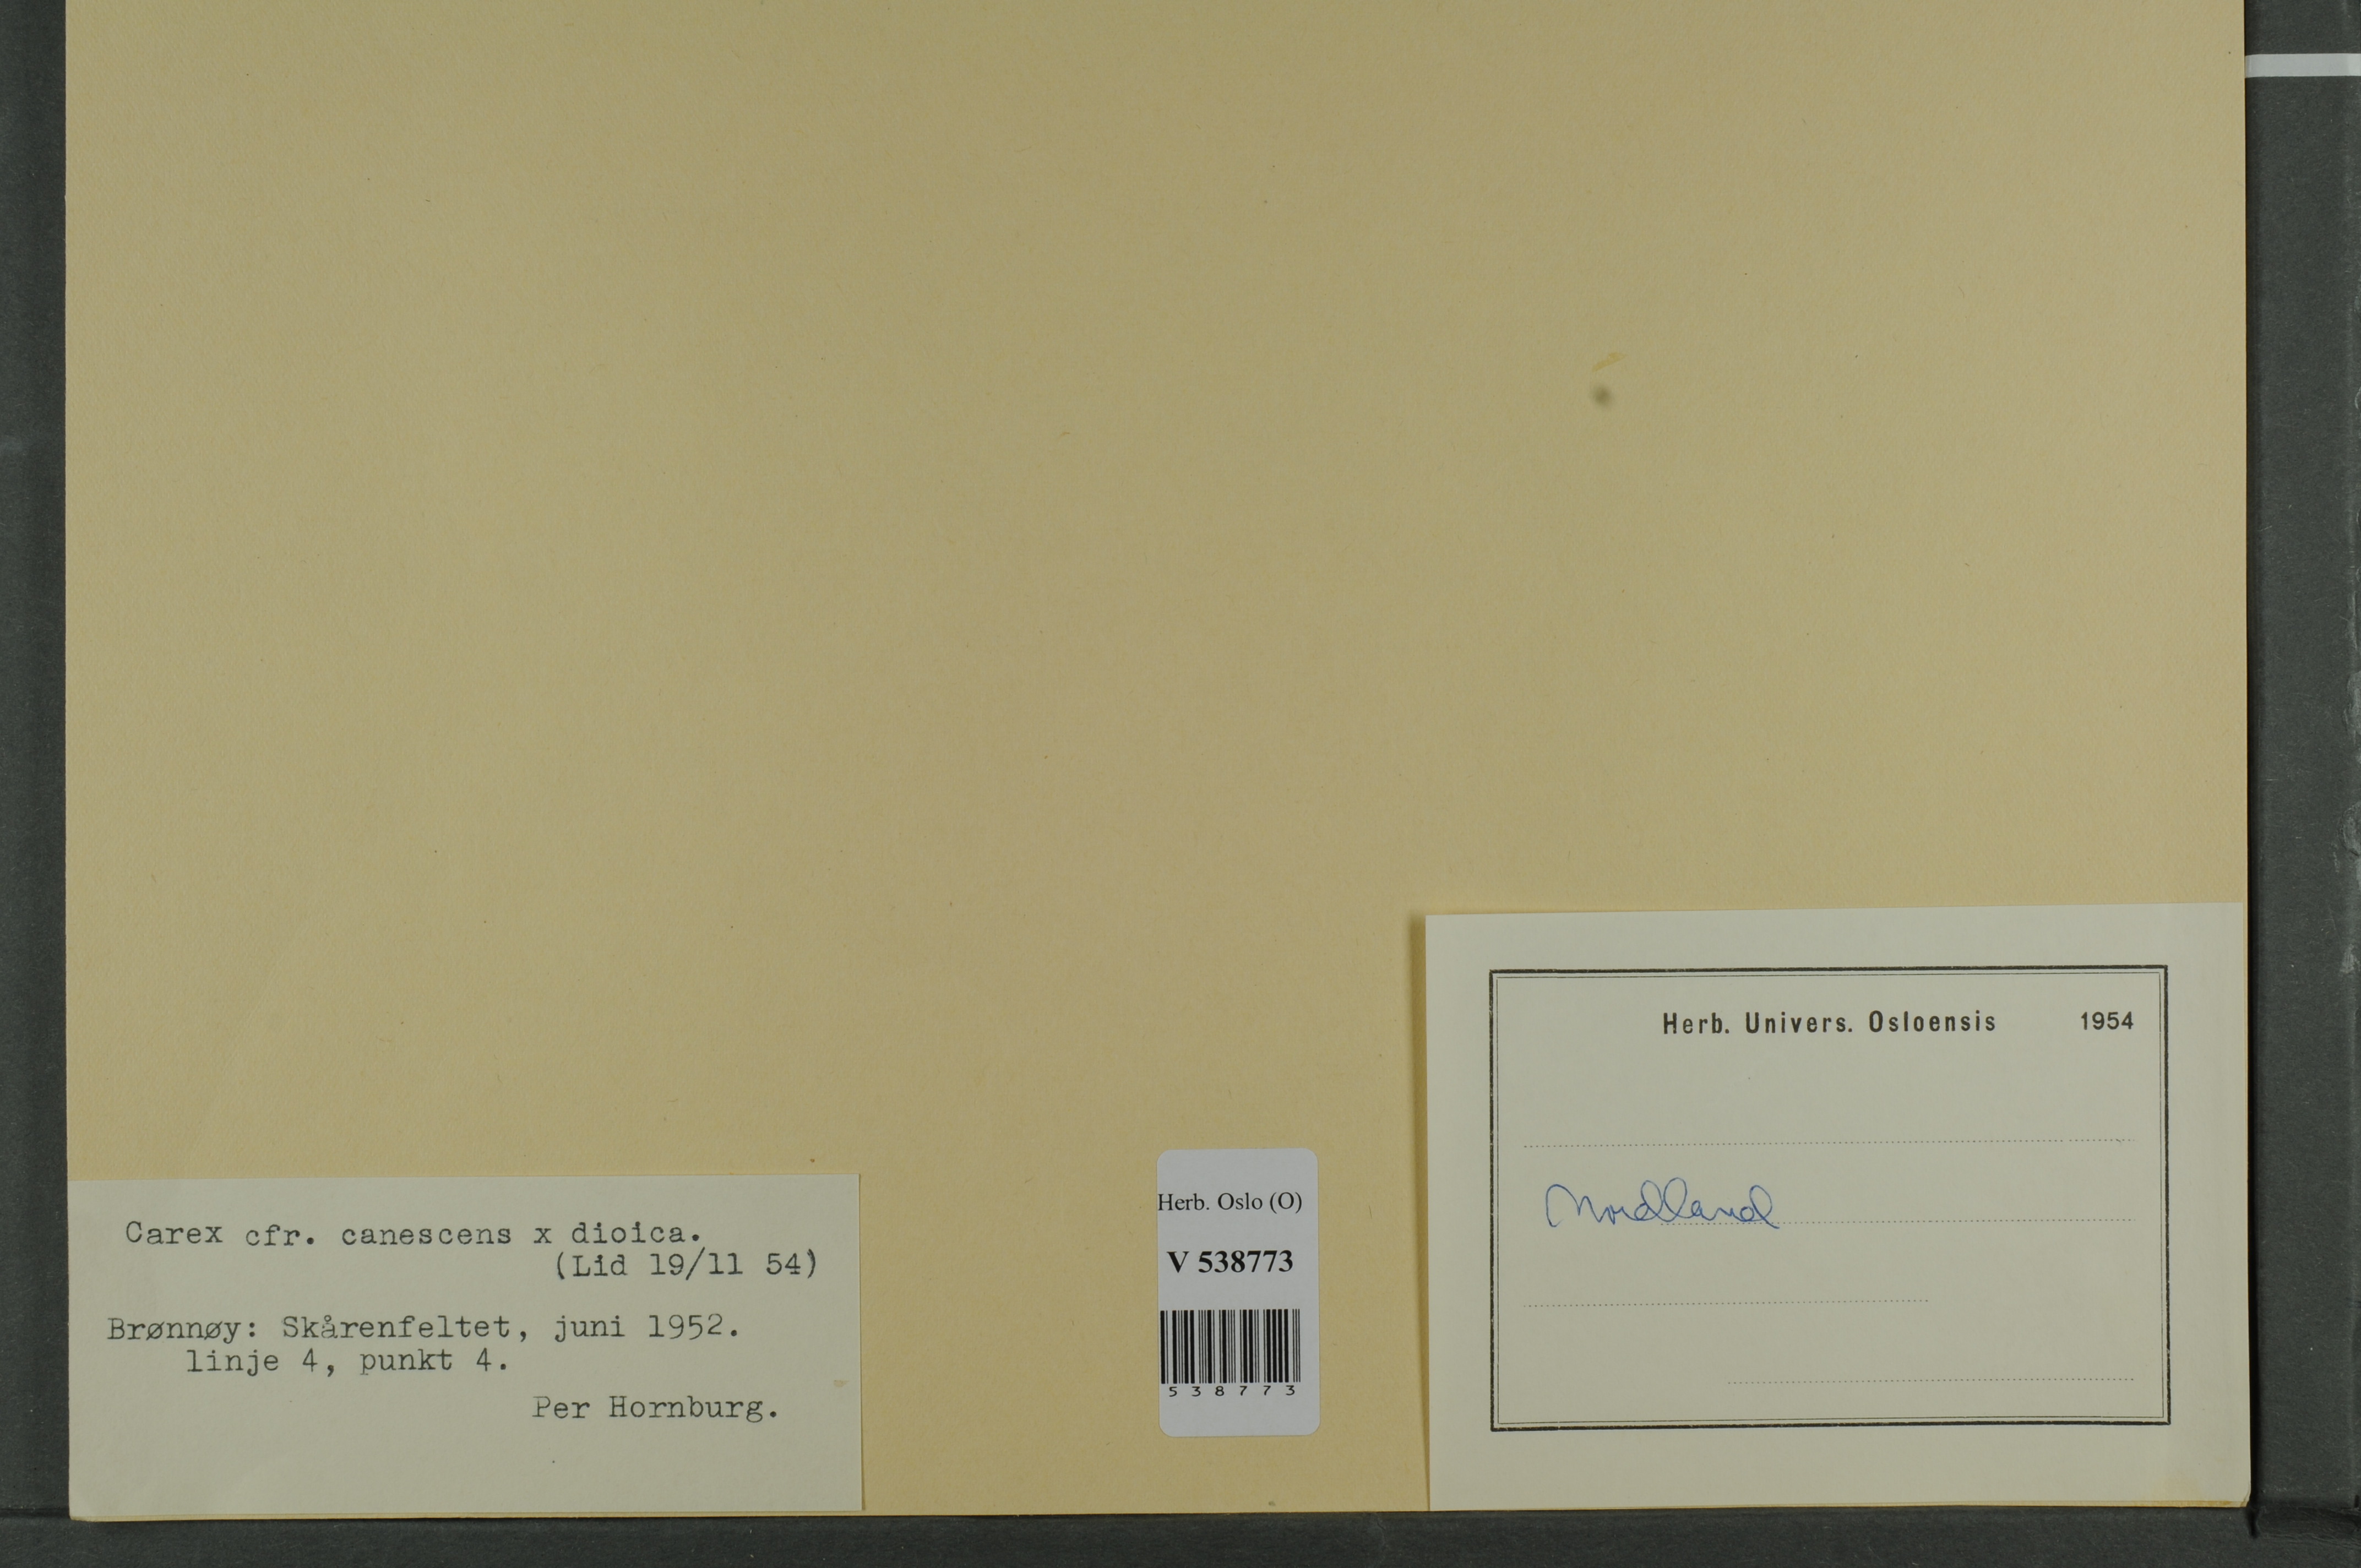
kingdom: Plantae
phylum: Tracheophyta
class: Liliopsida
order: Poales
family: Cyperaceae
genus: Carex
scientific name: Carex
